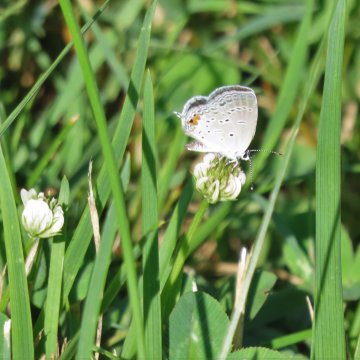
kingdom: Animalia
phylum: Arthropoda
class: Insecta
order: Lepidoptera
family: Lycaenidae
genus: Elkalyce
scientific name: Elkalyce comyntas
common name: Eastern Tailed-Blue
